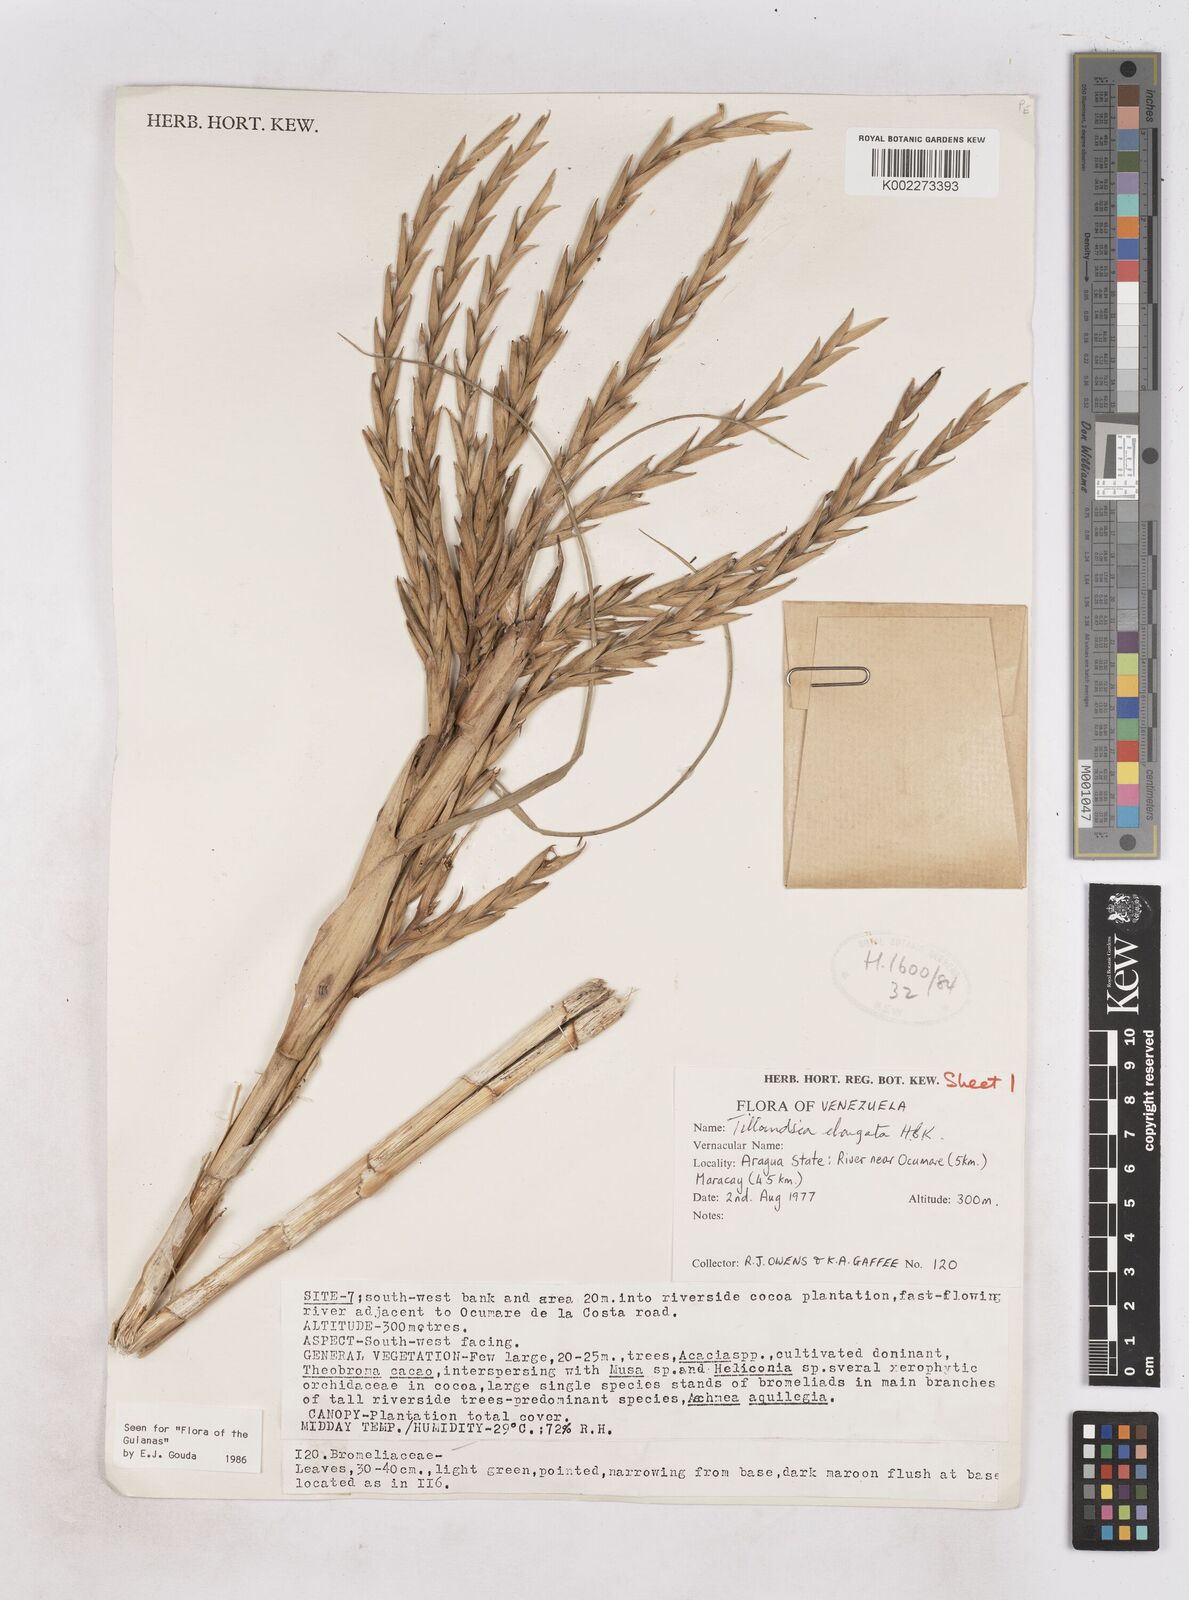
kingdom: Plantae
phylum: Tracheophyta
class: Liliopsida
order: Poales
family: Bromeliaceae
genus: Tillandsia
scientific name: Tillandsia elongata
